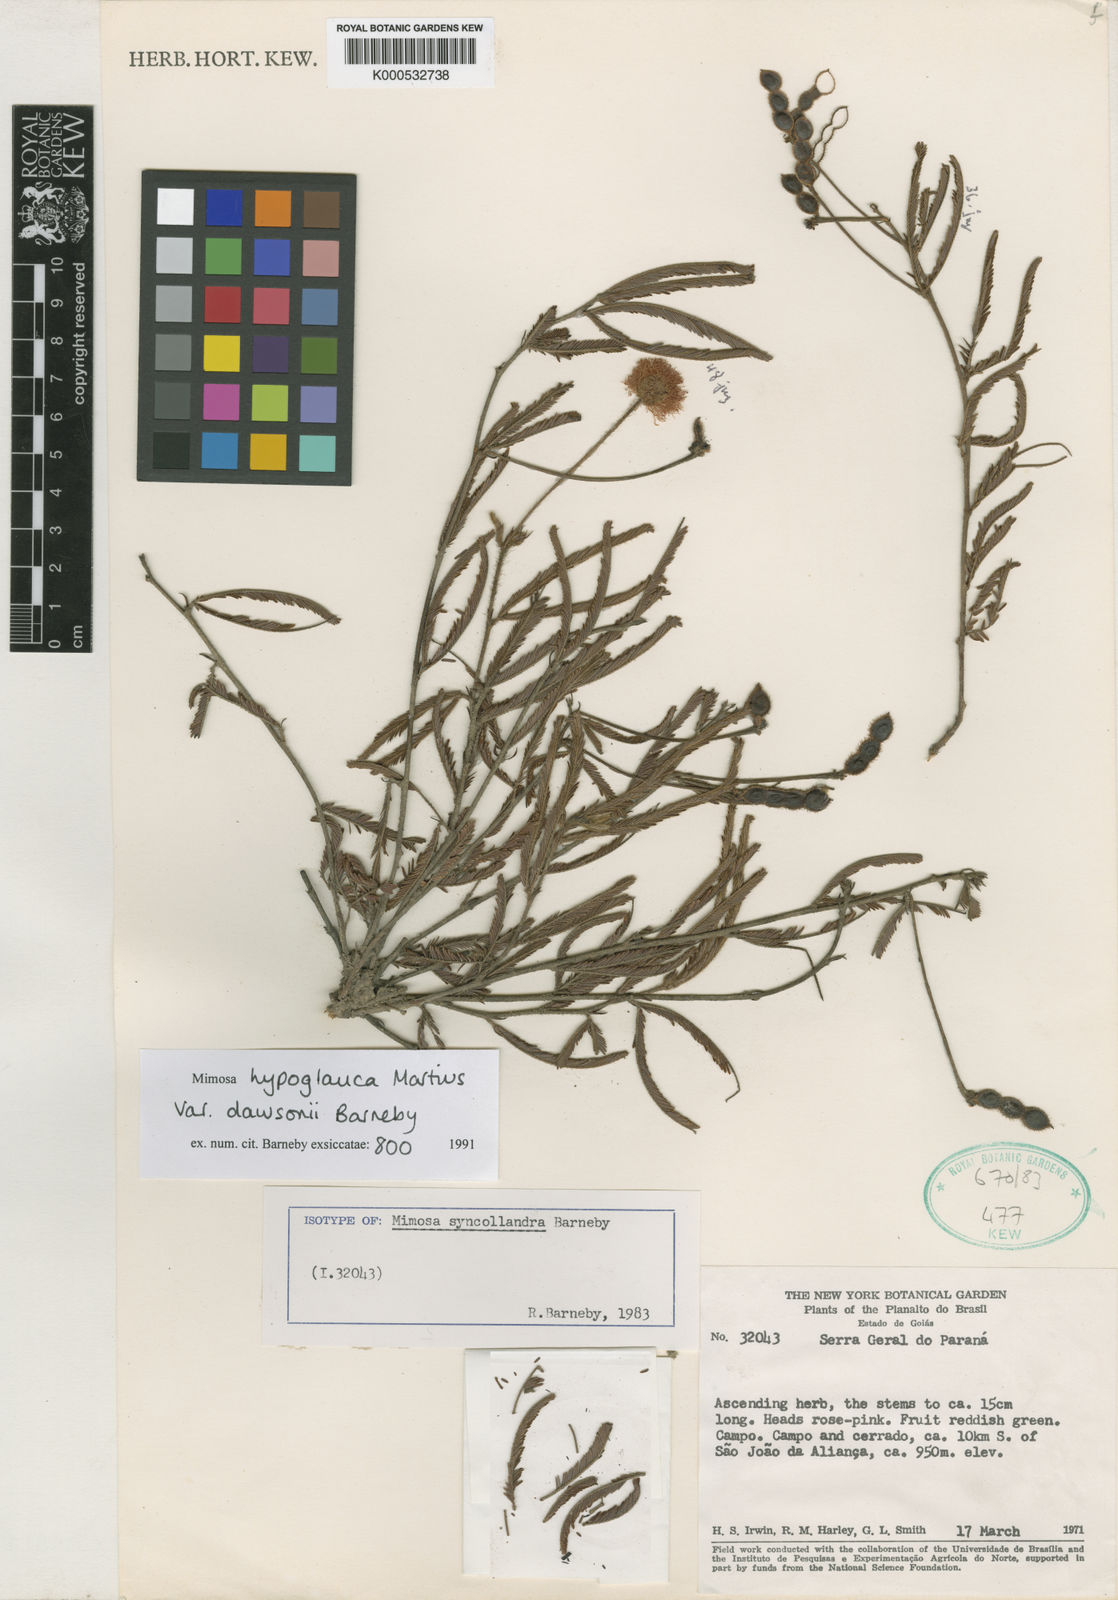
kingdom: Plantae
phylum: Tracheophyta
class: Magnoliopsida
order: Fabales
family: Fabaceae
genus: Mimosa
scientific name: Mimosa hypoglauca
